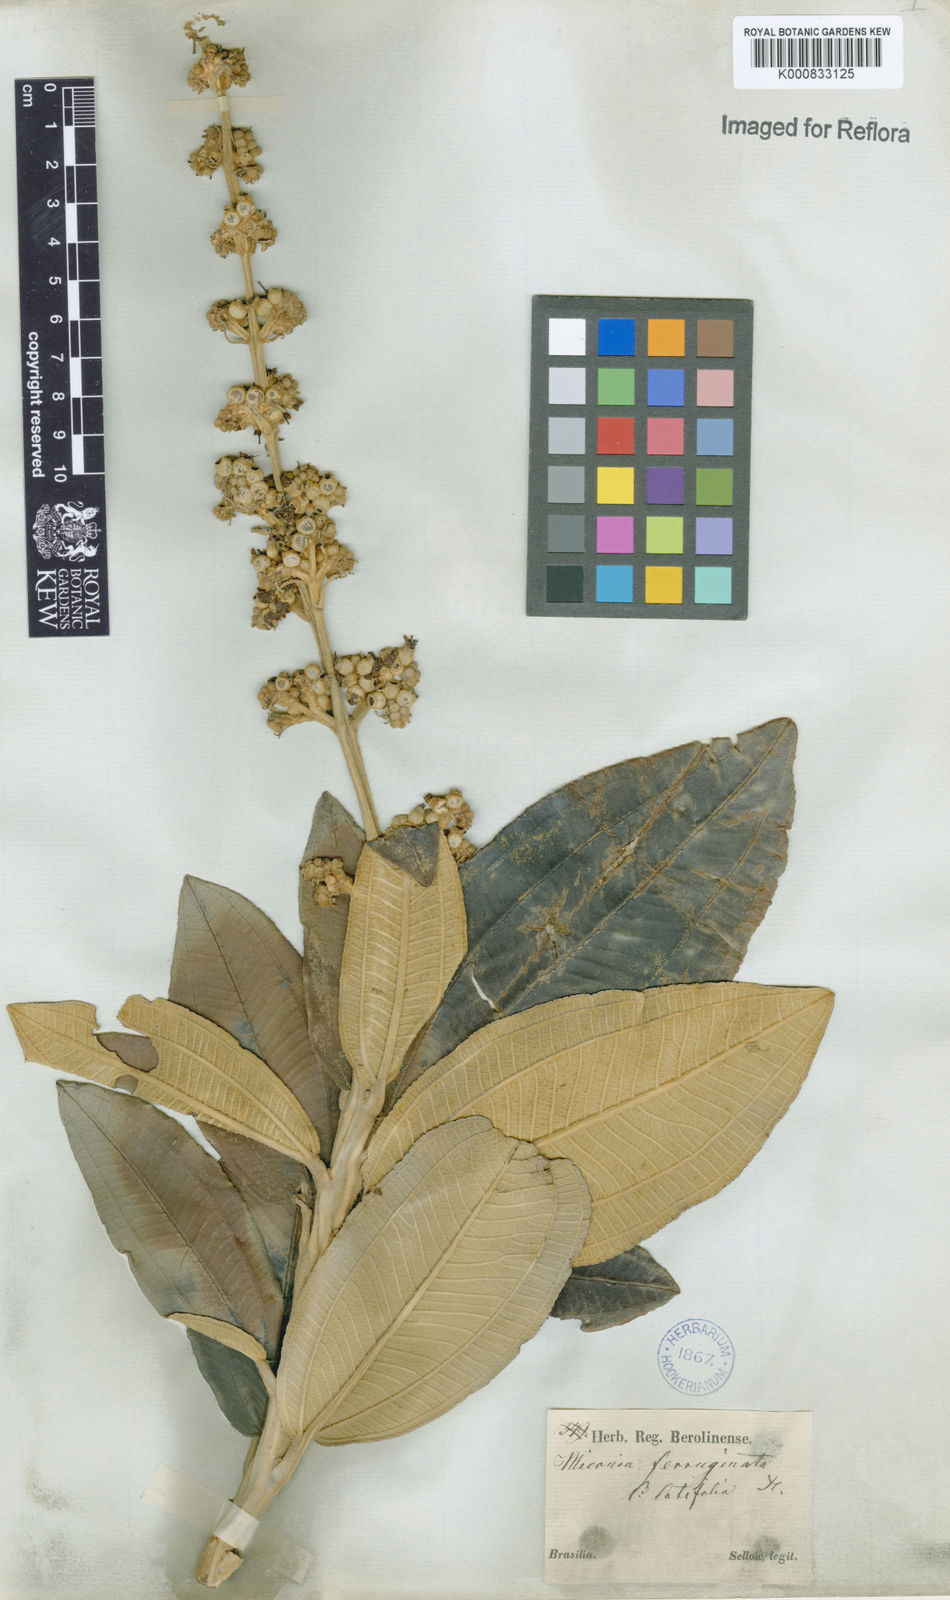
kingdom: Plantae
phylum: Tracheophyta
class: Magnoliopsida
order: Myrtales
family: Melastomataceae
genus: Miconia
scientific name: Miconia ferruginata
